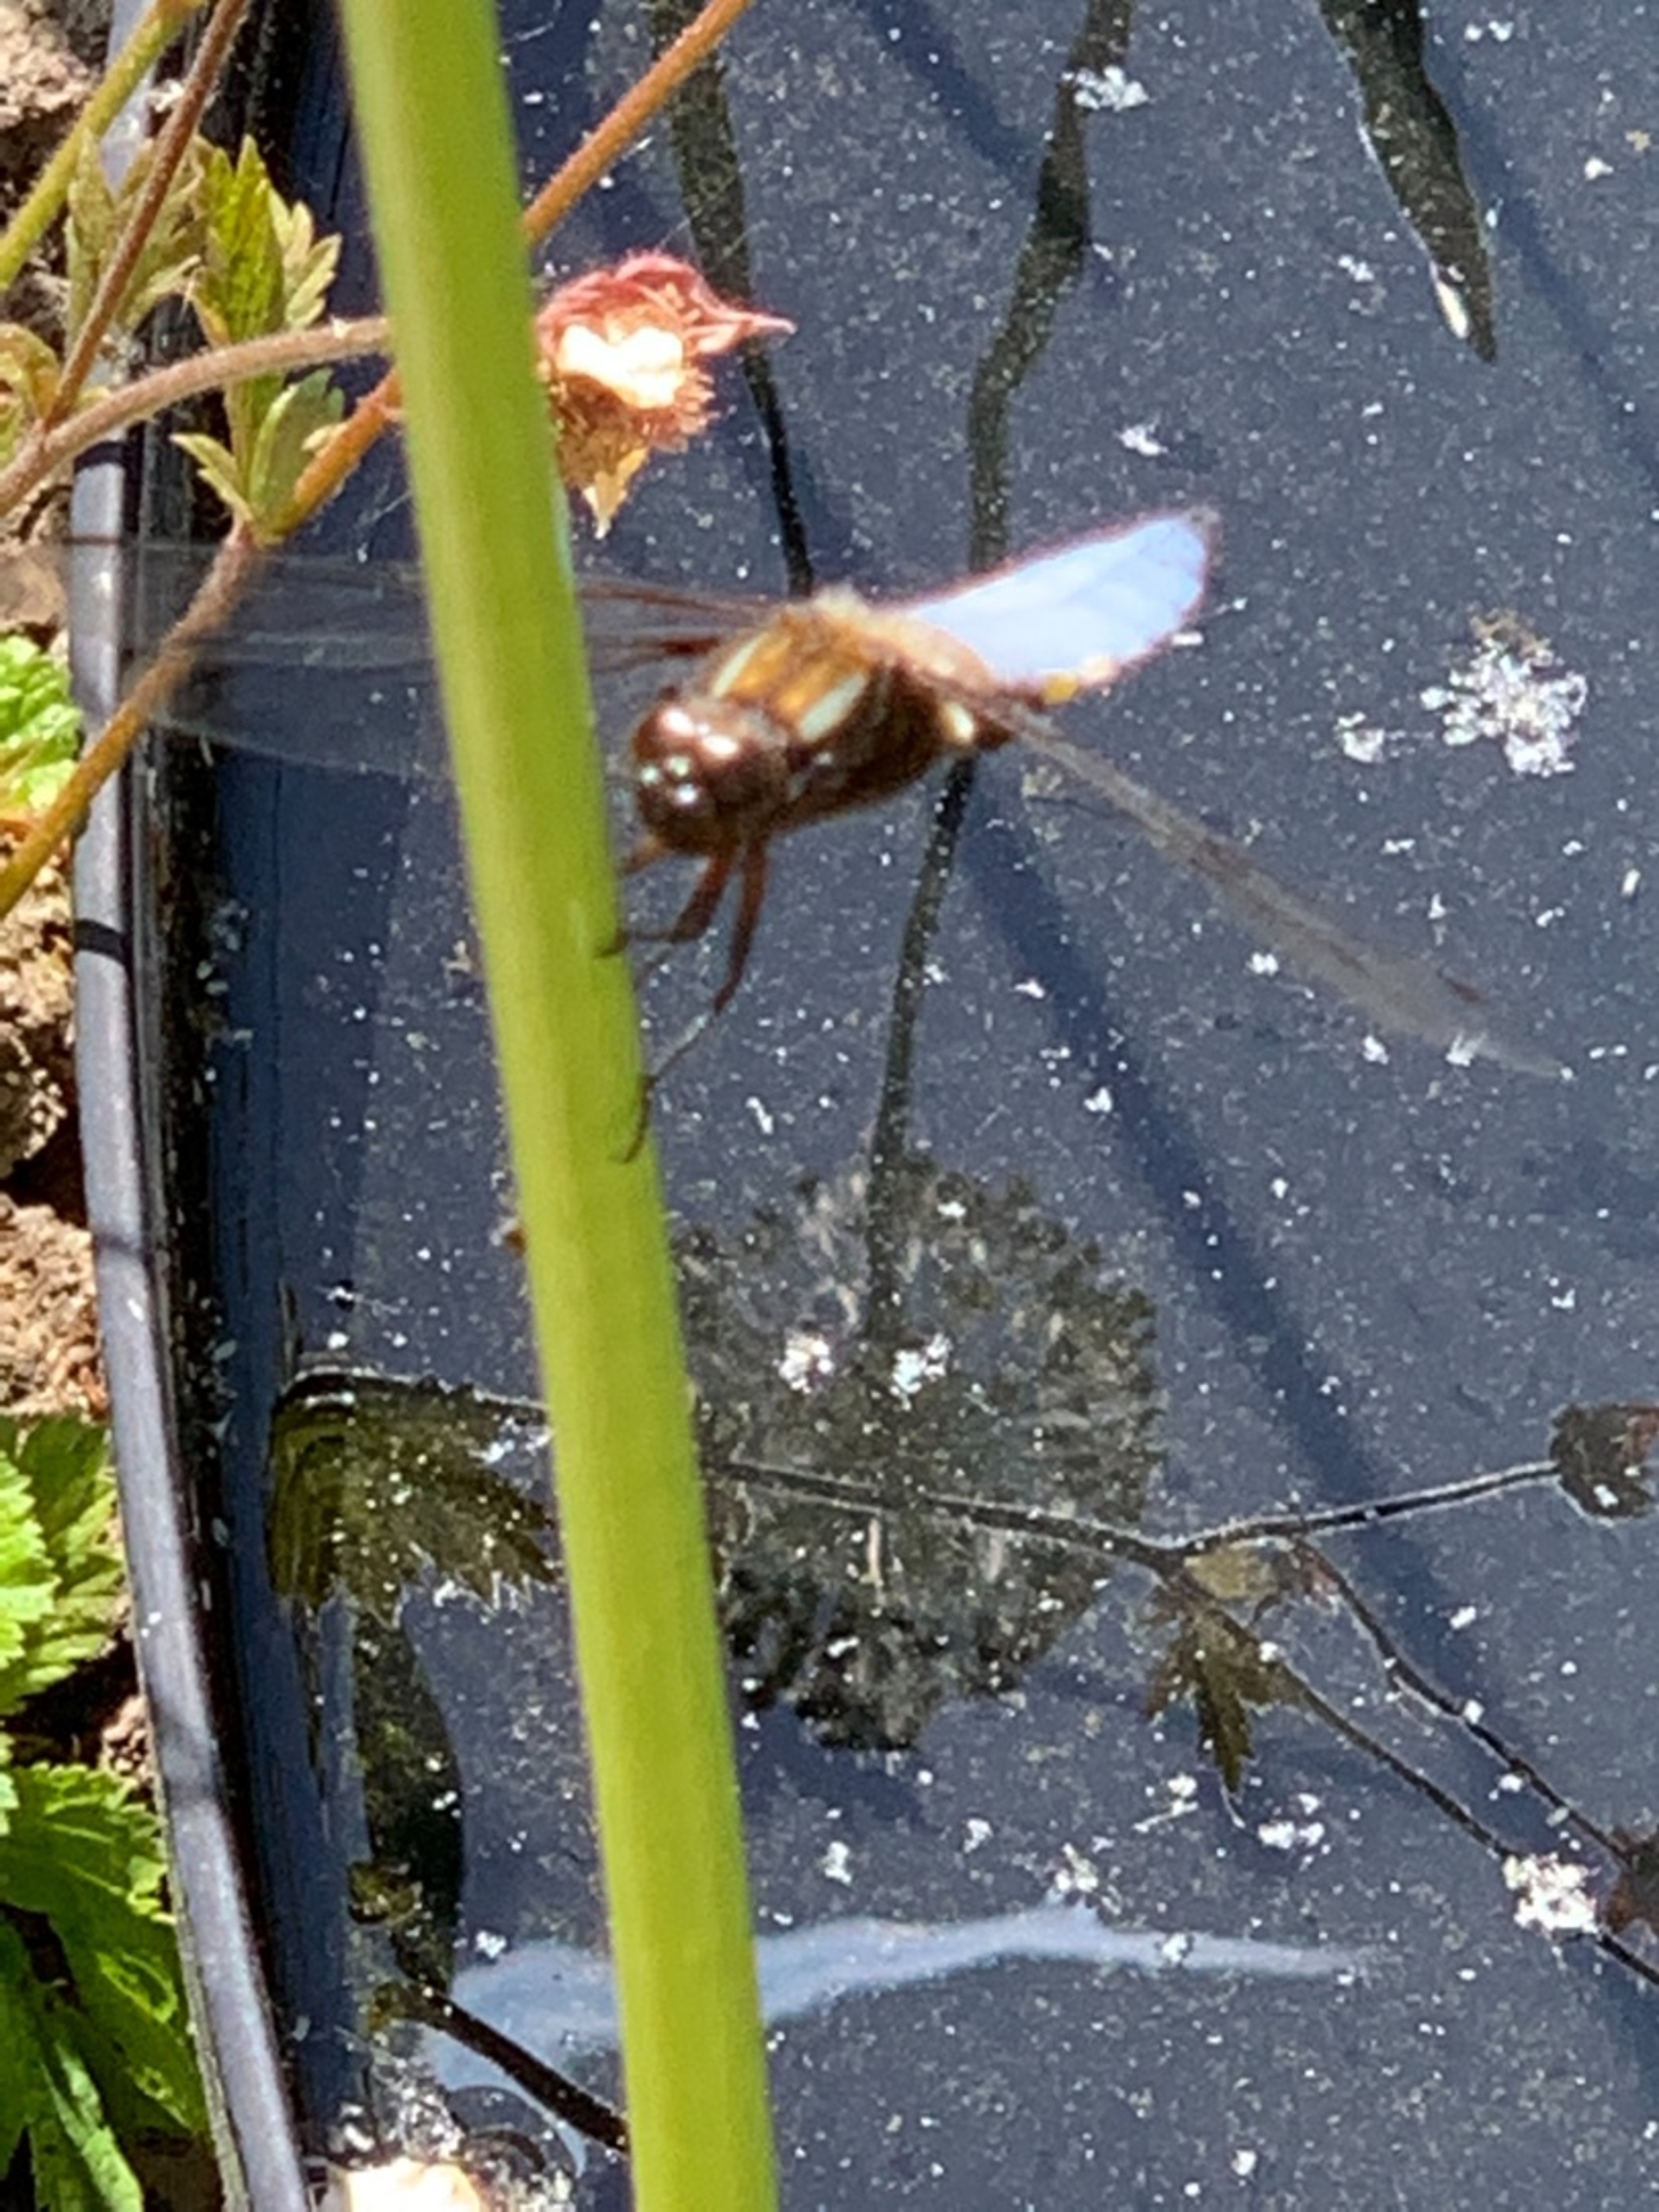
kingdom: Animalia
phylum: Arthropoda
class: Insecta
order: Odonata
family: Libellulidae
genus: Libellula
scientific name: Libellula depressa
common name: Blå libel
